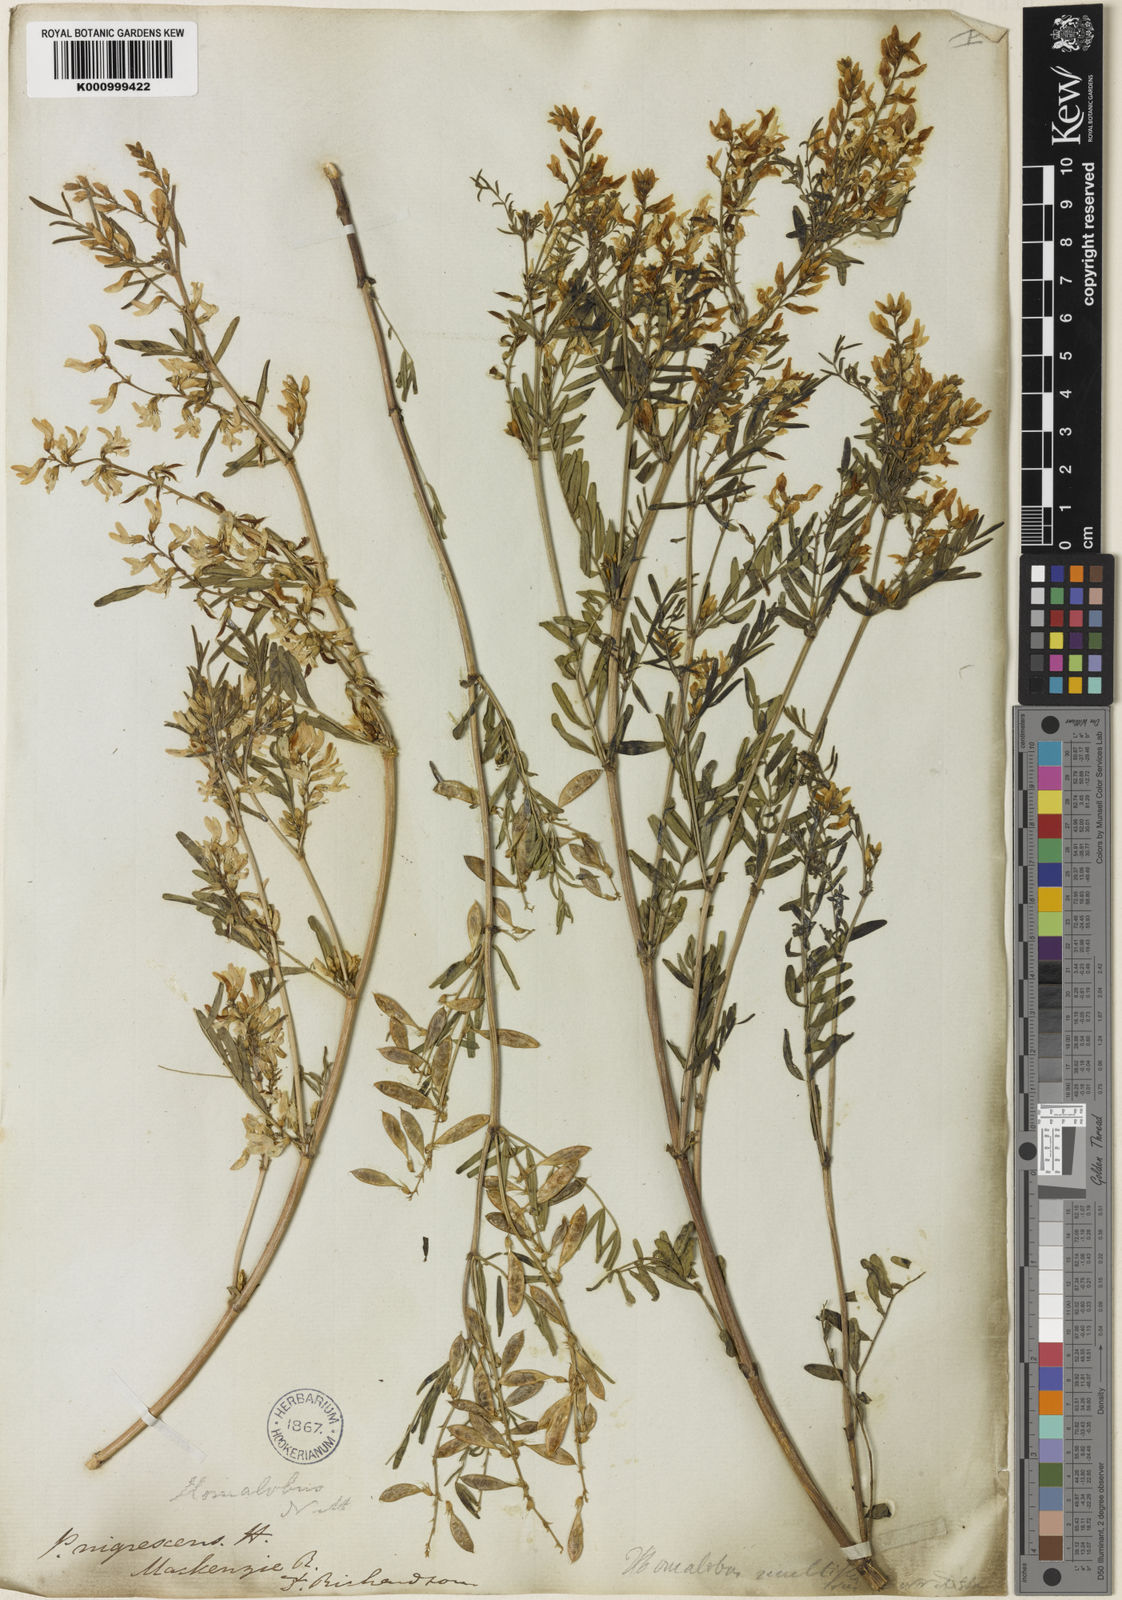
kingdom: Plantae
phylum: Tracheophyta
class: Magnoliopsida
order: Fabales
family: Fabaceae
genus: Astragalus
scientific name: Astragalus tenellus
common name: Pulse milk-vetch
